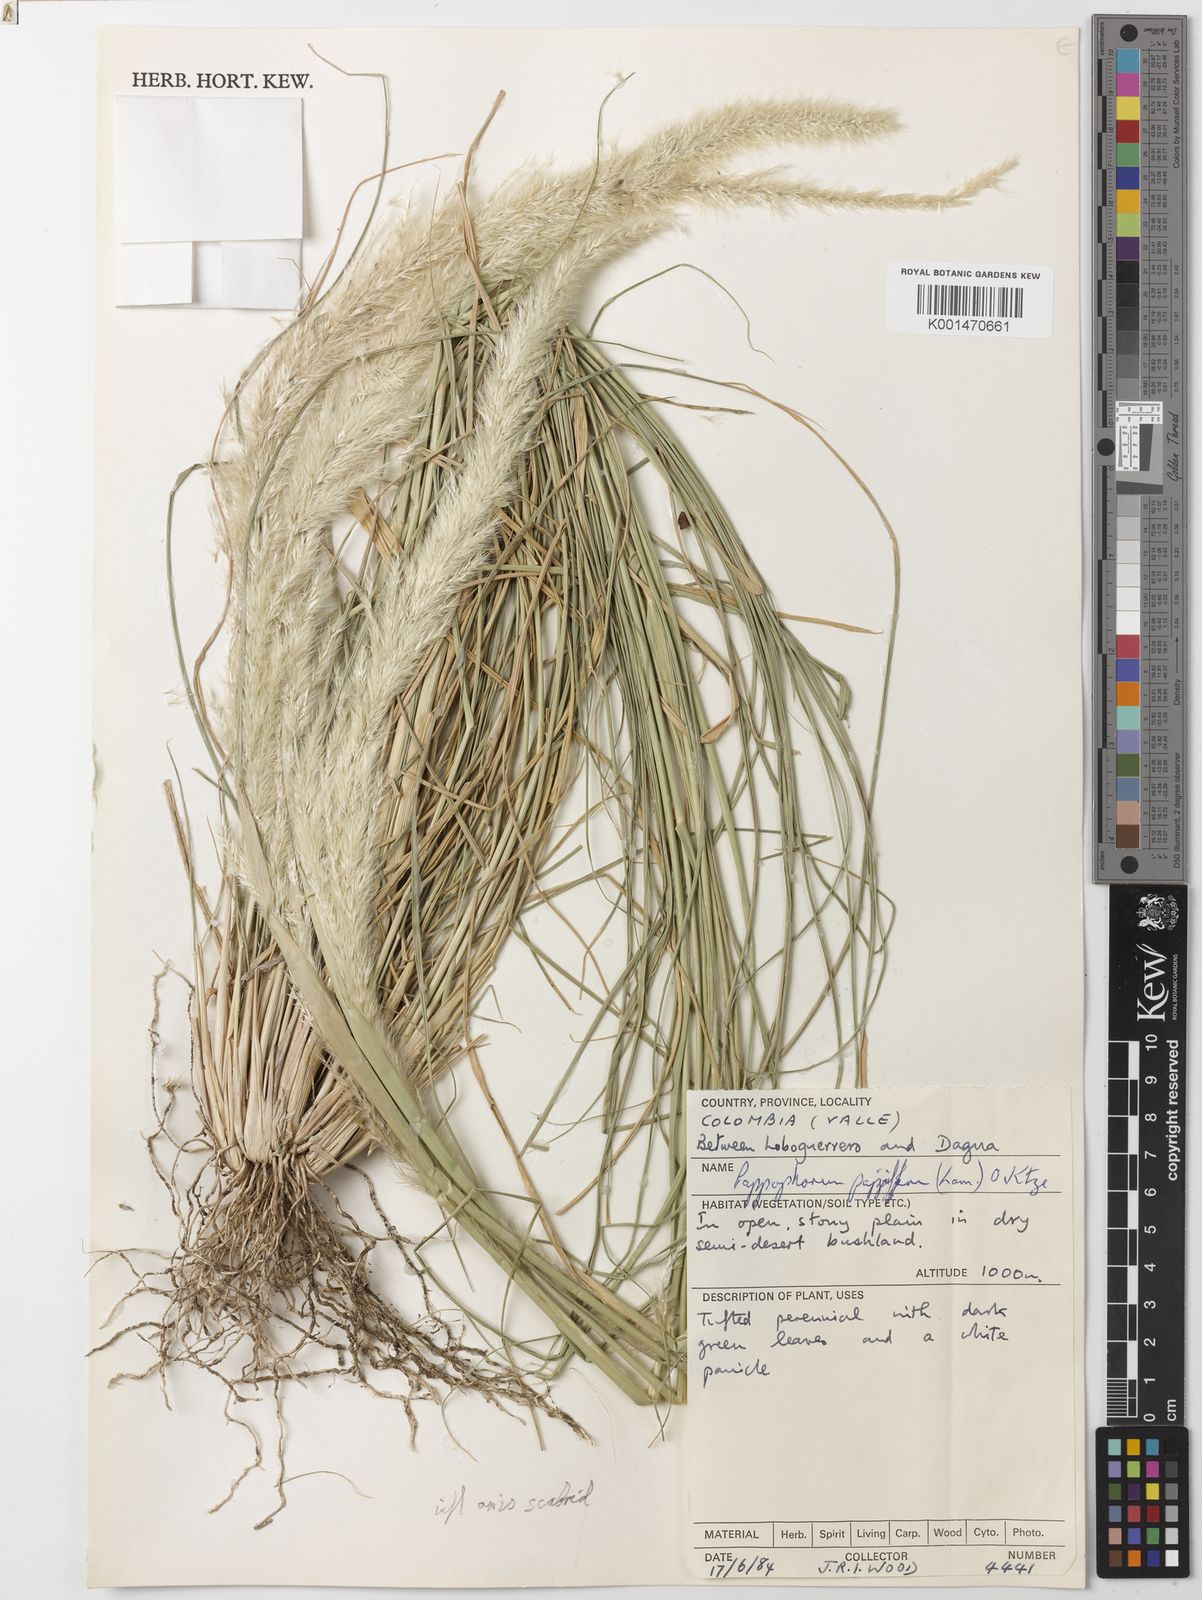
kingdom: Plantae
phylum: Tracheophyta
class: Liliopsida
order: Poales
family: Poaceae
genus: Pappophorum
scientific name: Pappophorum pappiferum
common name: Crabgrass
